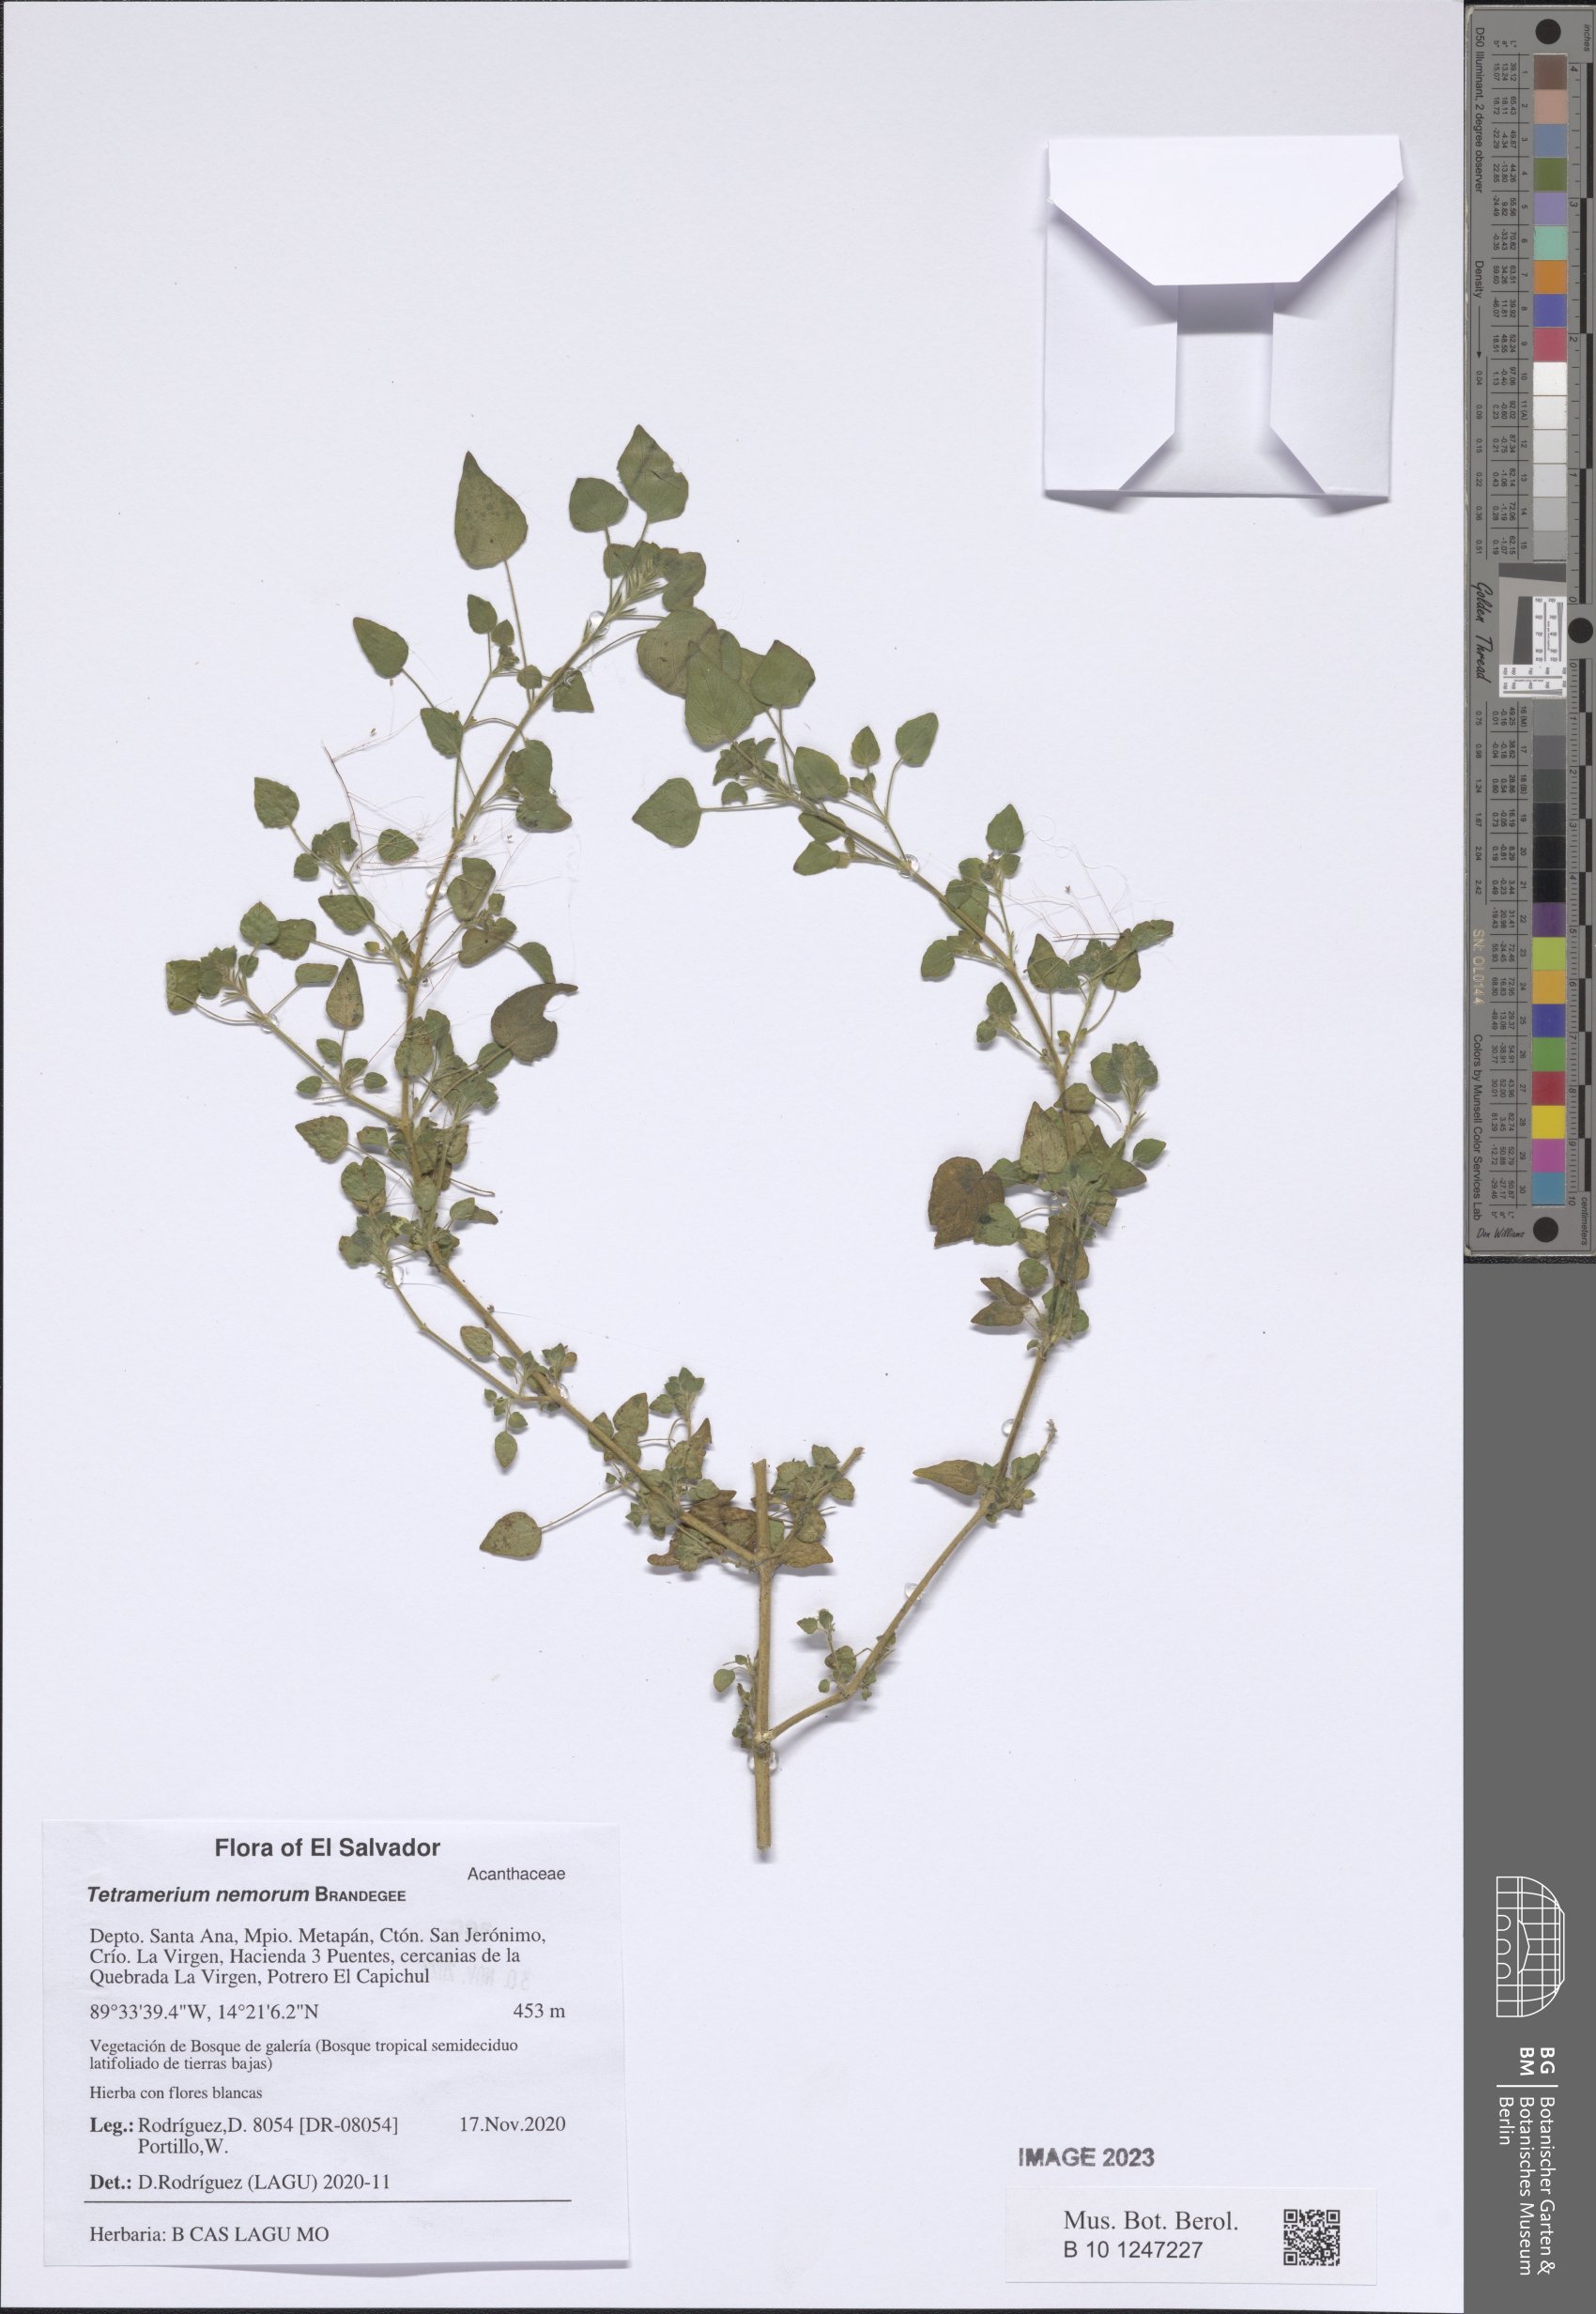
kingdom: Plantae
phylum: Tracheophyta
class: Magnoliopsida
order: Lamiales
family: Acanthaceae
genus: Tetramerium
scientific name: Tetramerium nemorum
